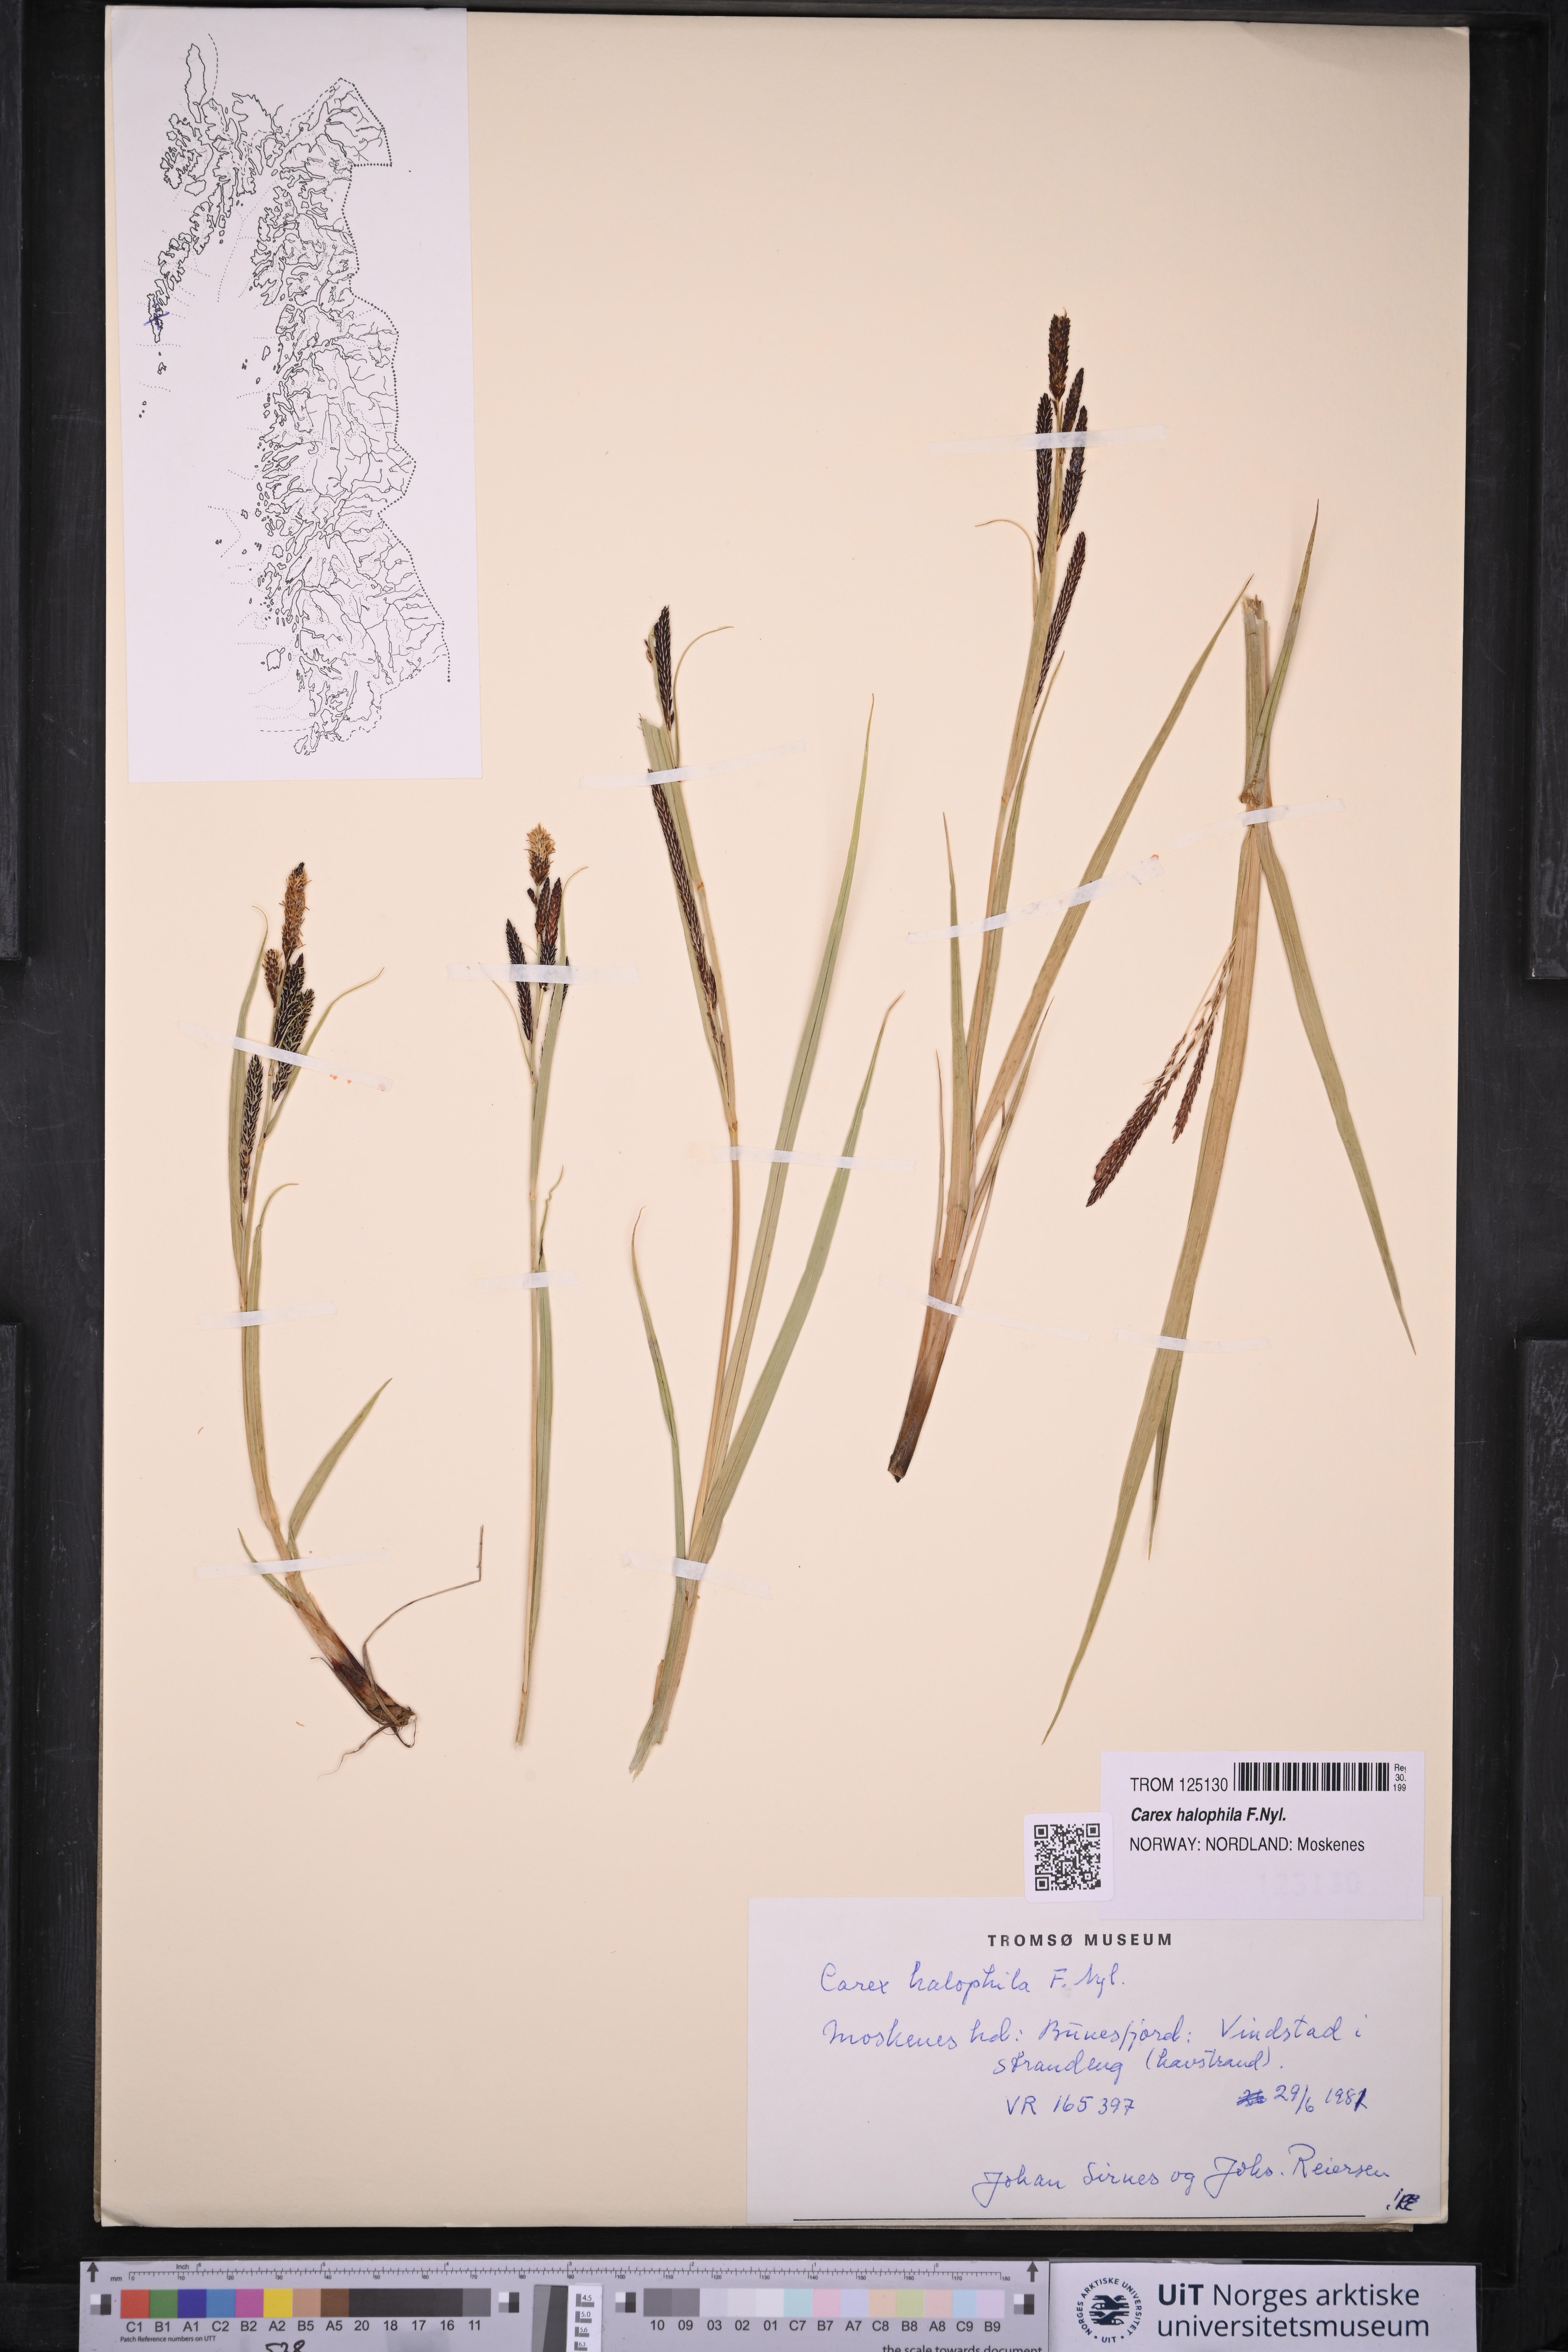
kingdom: Plantae
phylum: Tracheophyta
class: Liliopsida
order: Poales
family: Cyperaceae
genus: Carex
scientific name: Carex halophila
